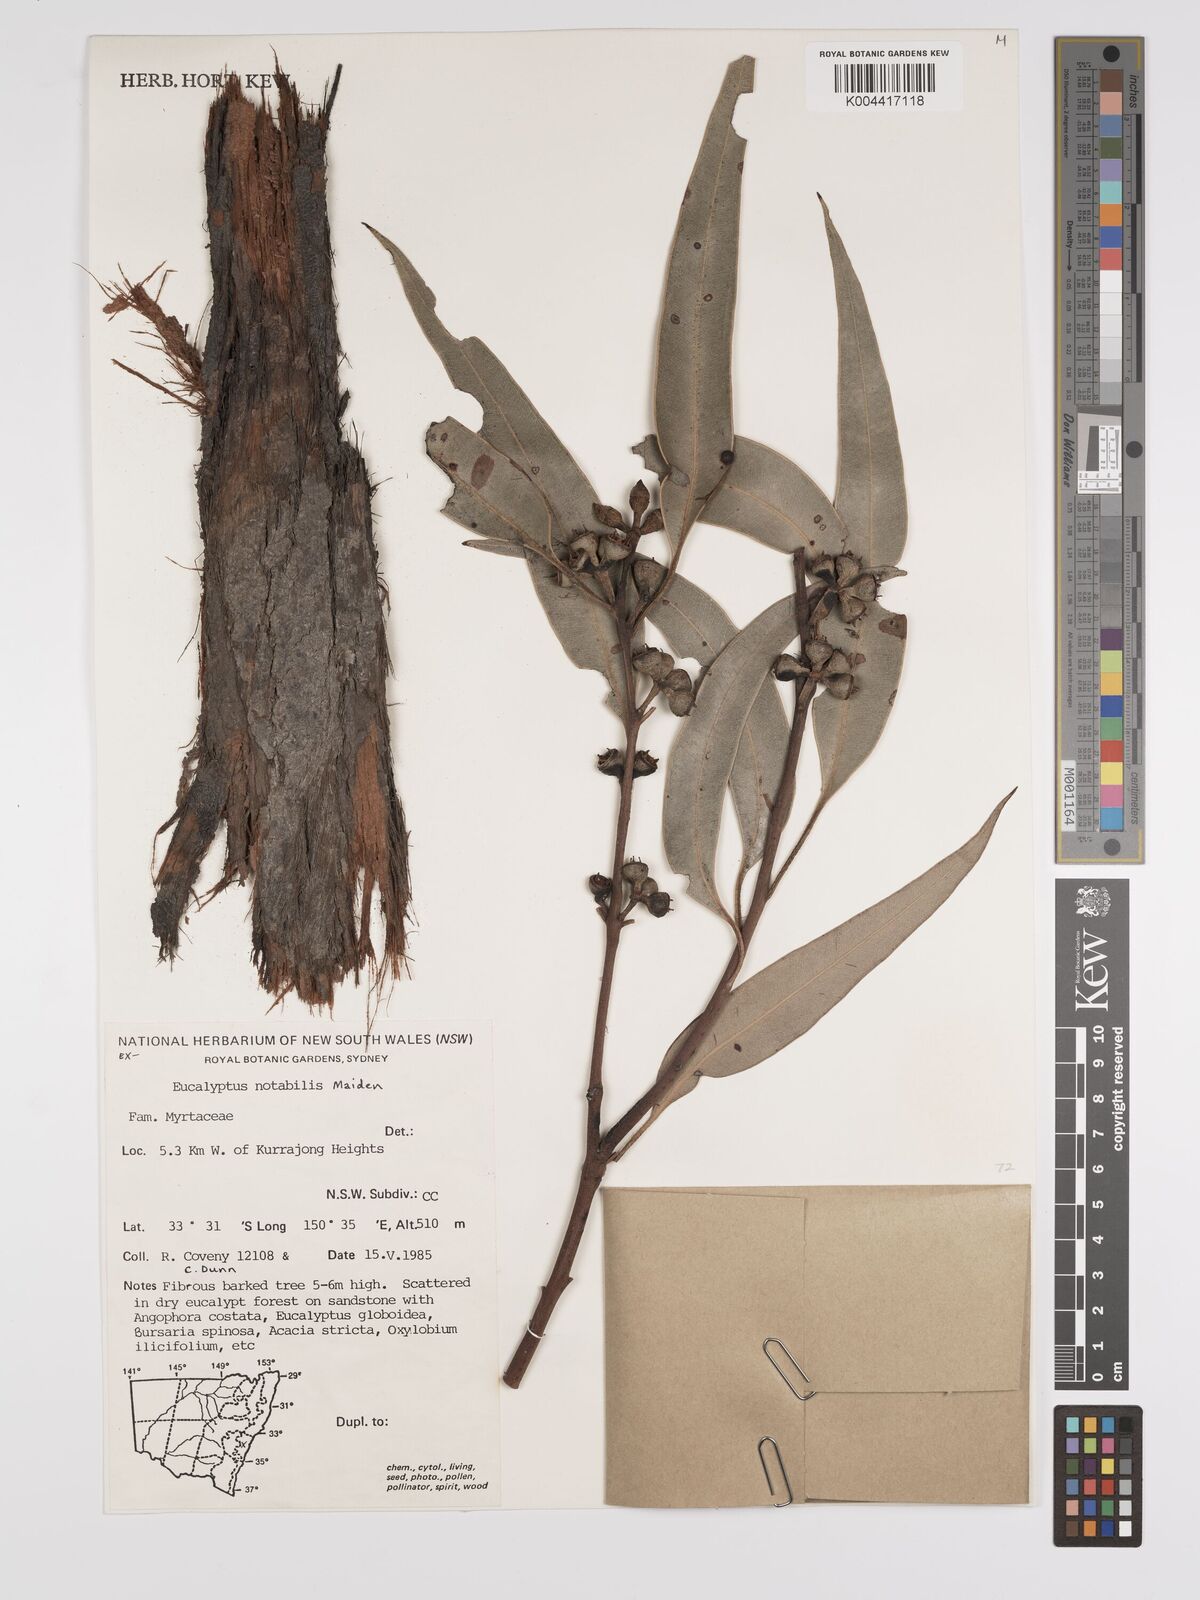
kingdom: Plantae
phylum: Tracheophyta
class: Magnoliopsida
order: Myrtales
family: Myrtaceae
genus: Eucalyptus
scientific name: Eucalyptus notabilis
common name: Blue mountains-mahogany
